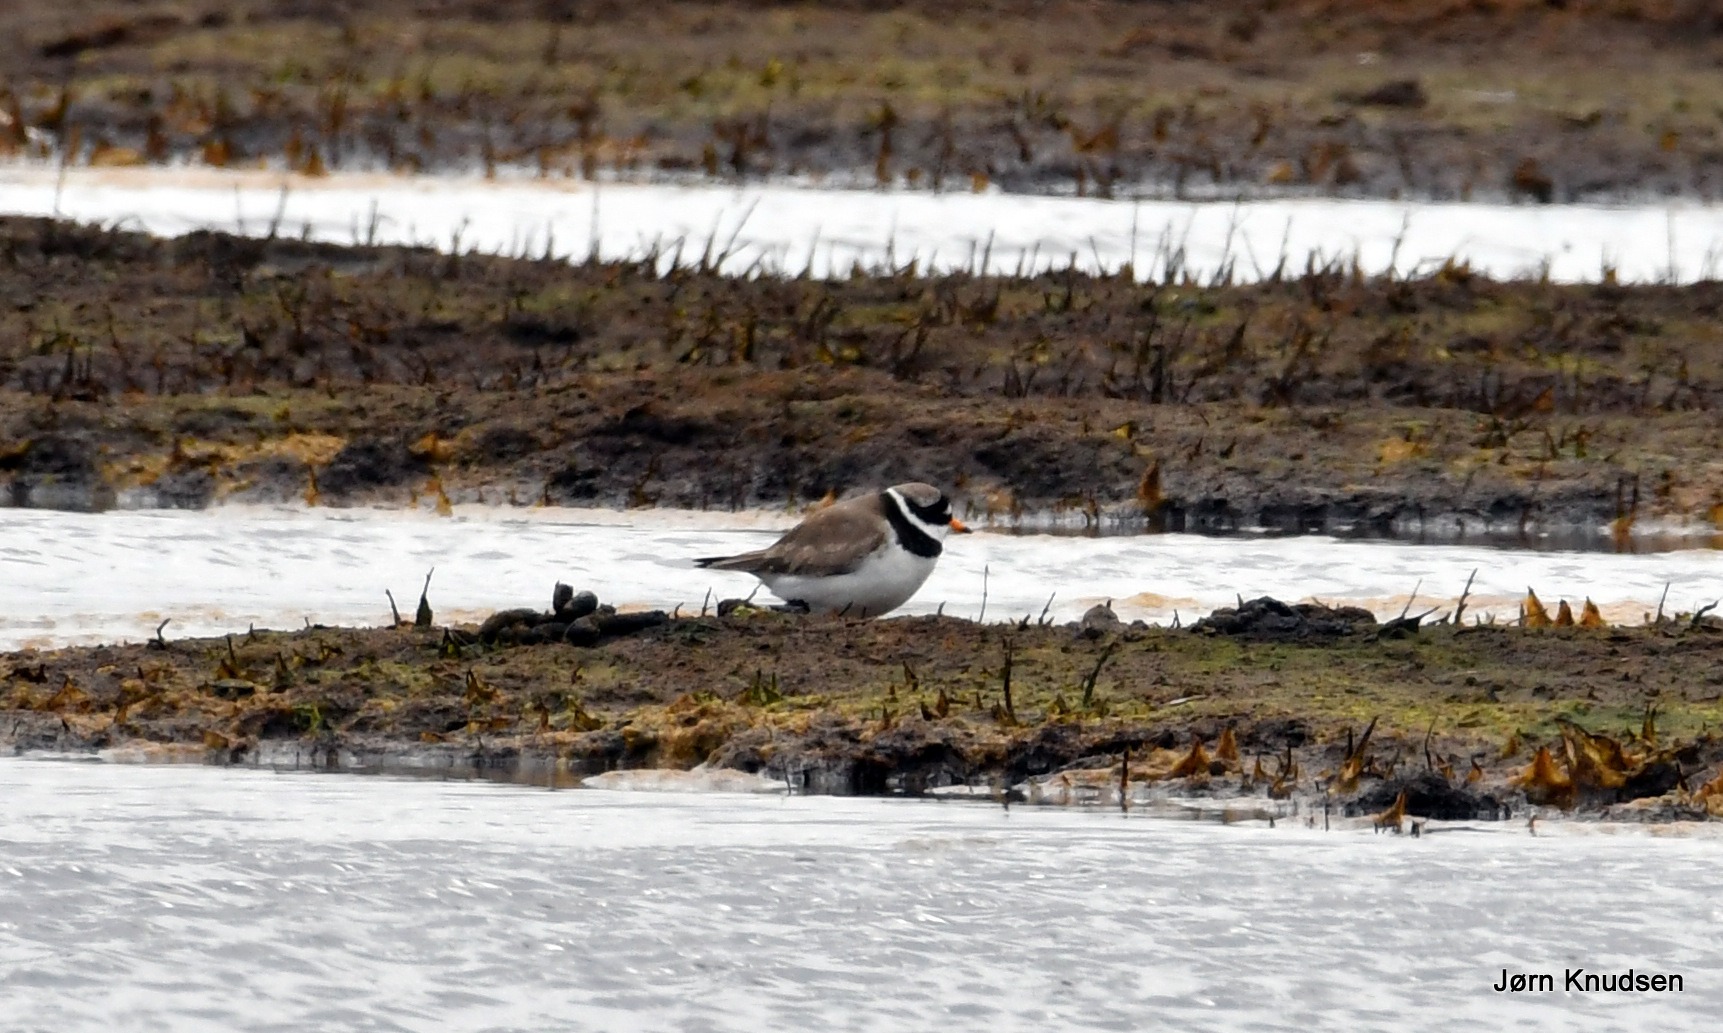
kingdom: Animalia
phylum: Chordata
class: Aves
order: Charadriiformes
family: Charadriidae
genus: Charadrius
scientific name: Charadrius hiaticula
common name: Stor præstekrave
